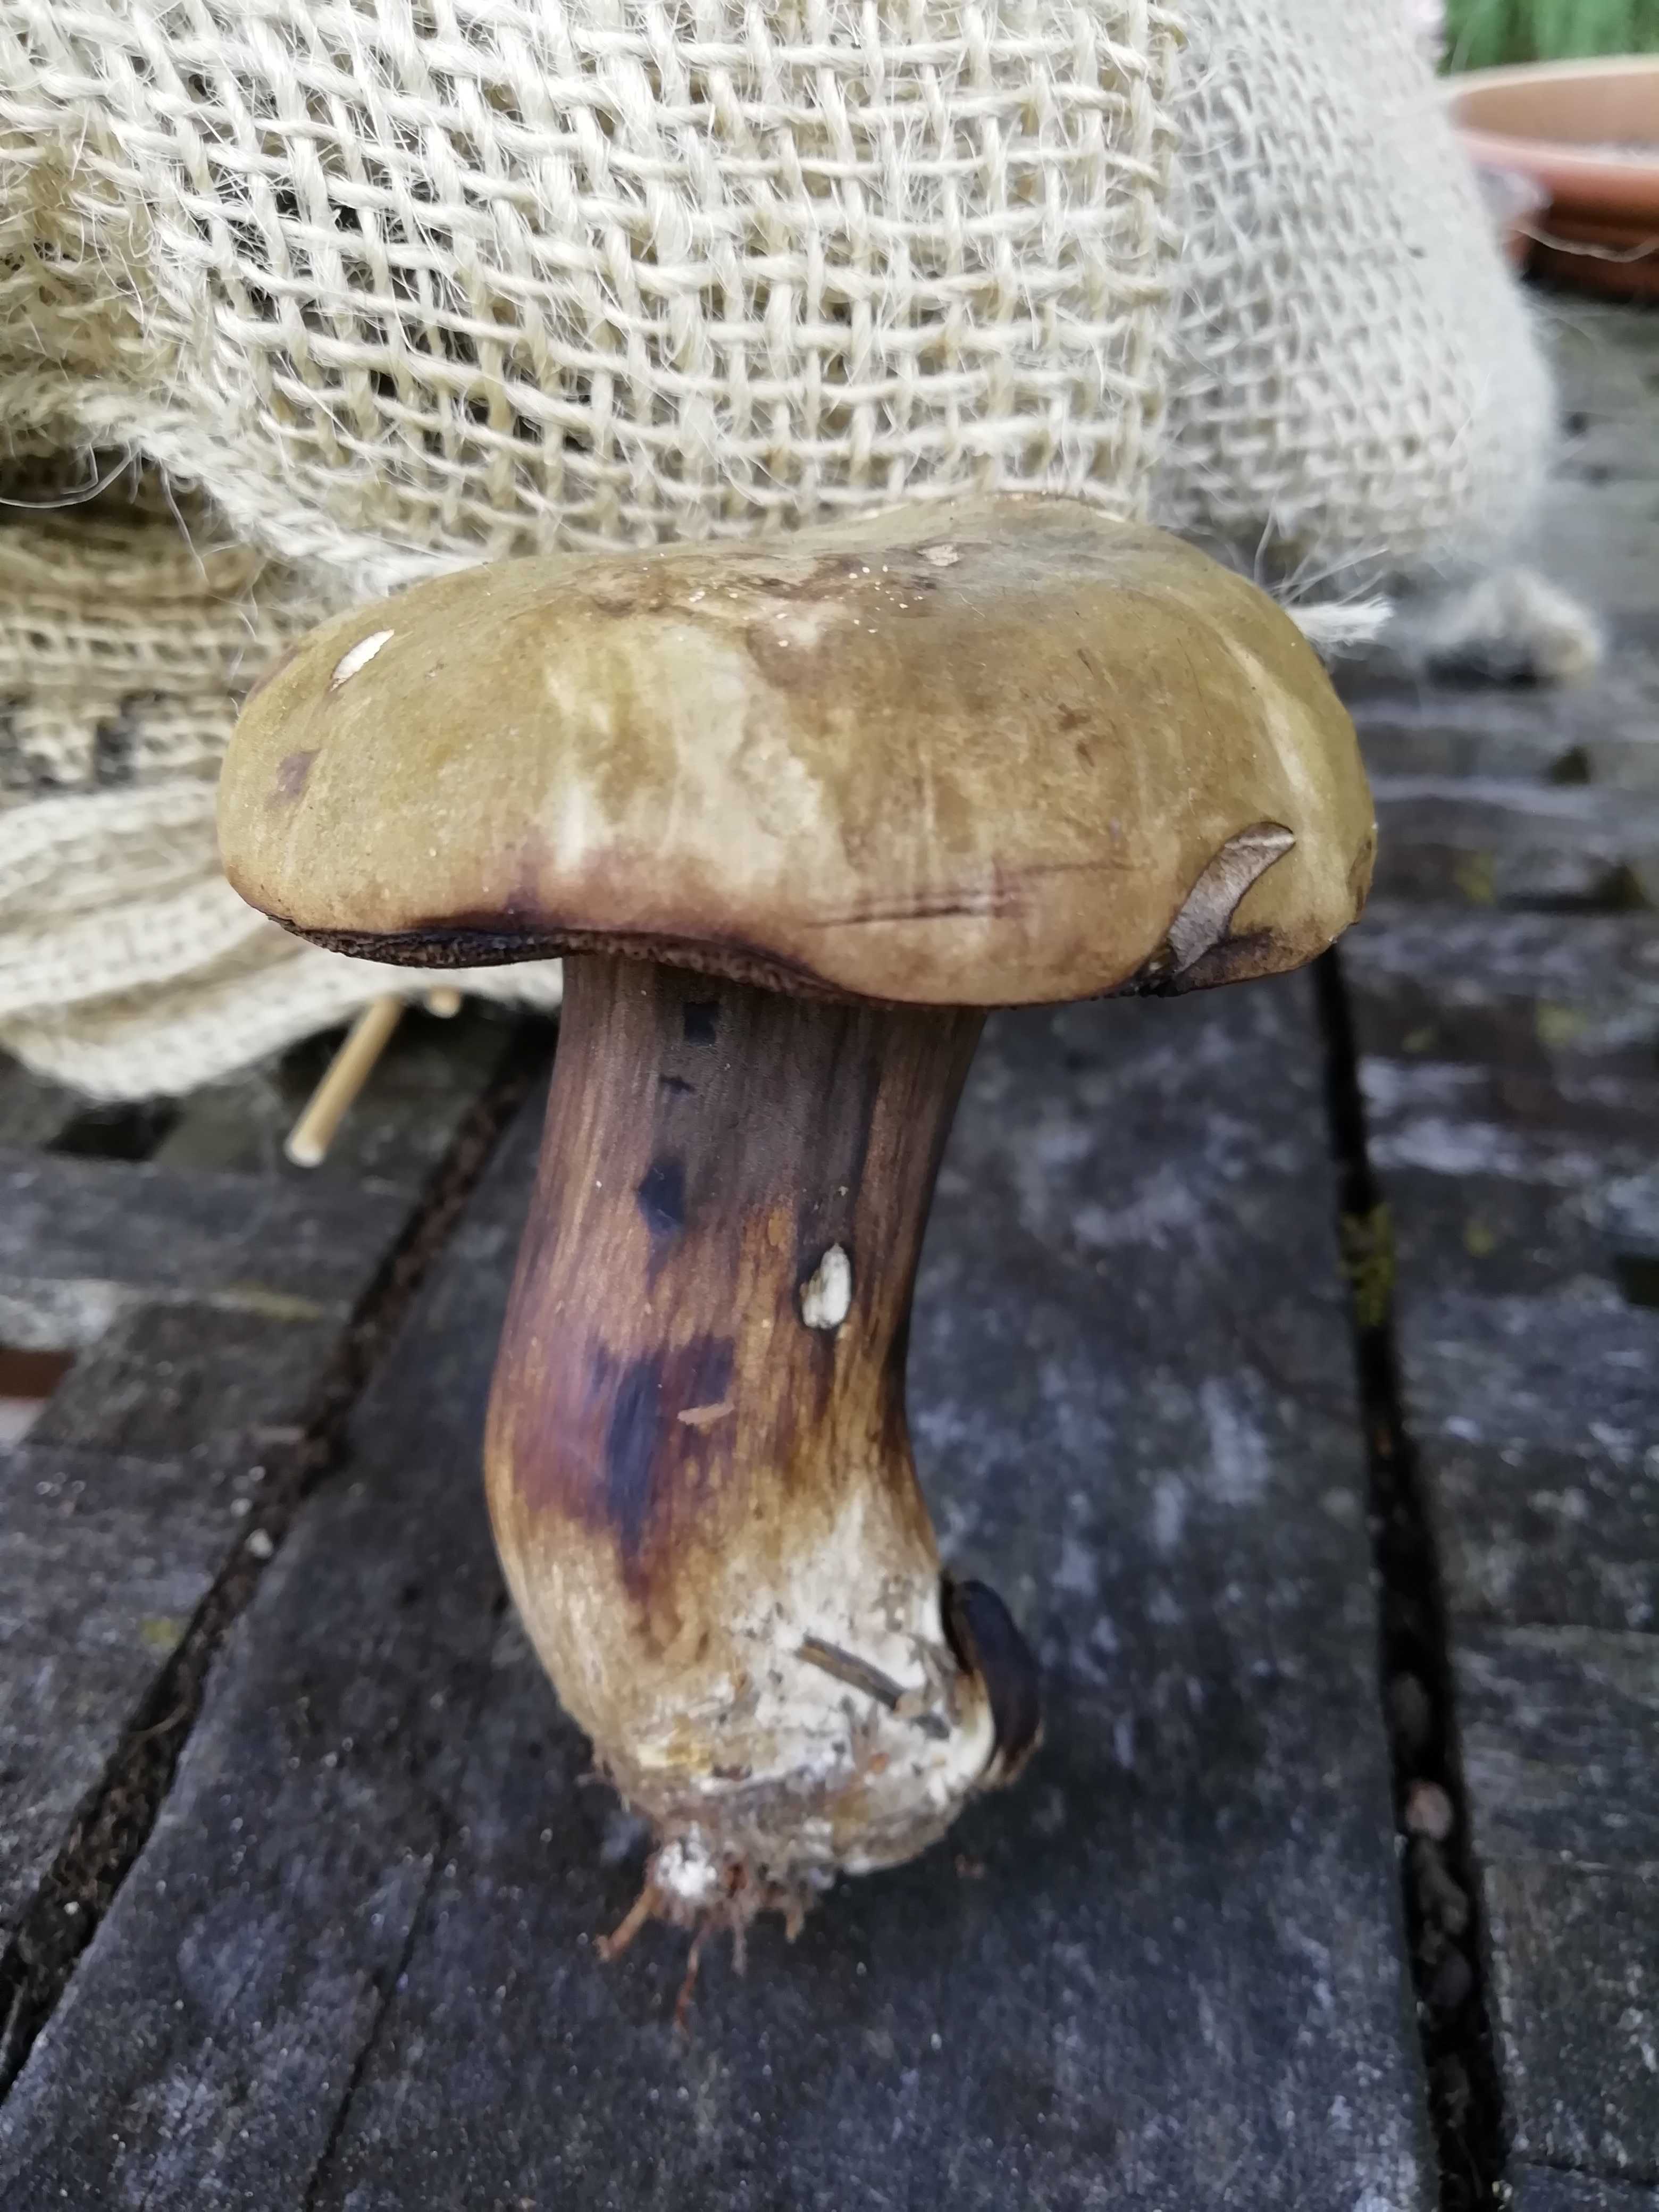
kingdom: Fungi
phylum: Basidiomycota
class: Agaricomycetes
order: Boletales
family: Boletaceae
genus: Porphyrellus
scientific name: Porphyrellus porphyrosporus
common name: sodrørhat
